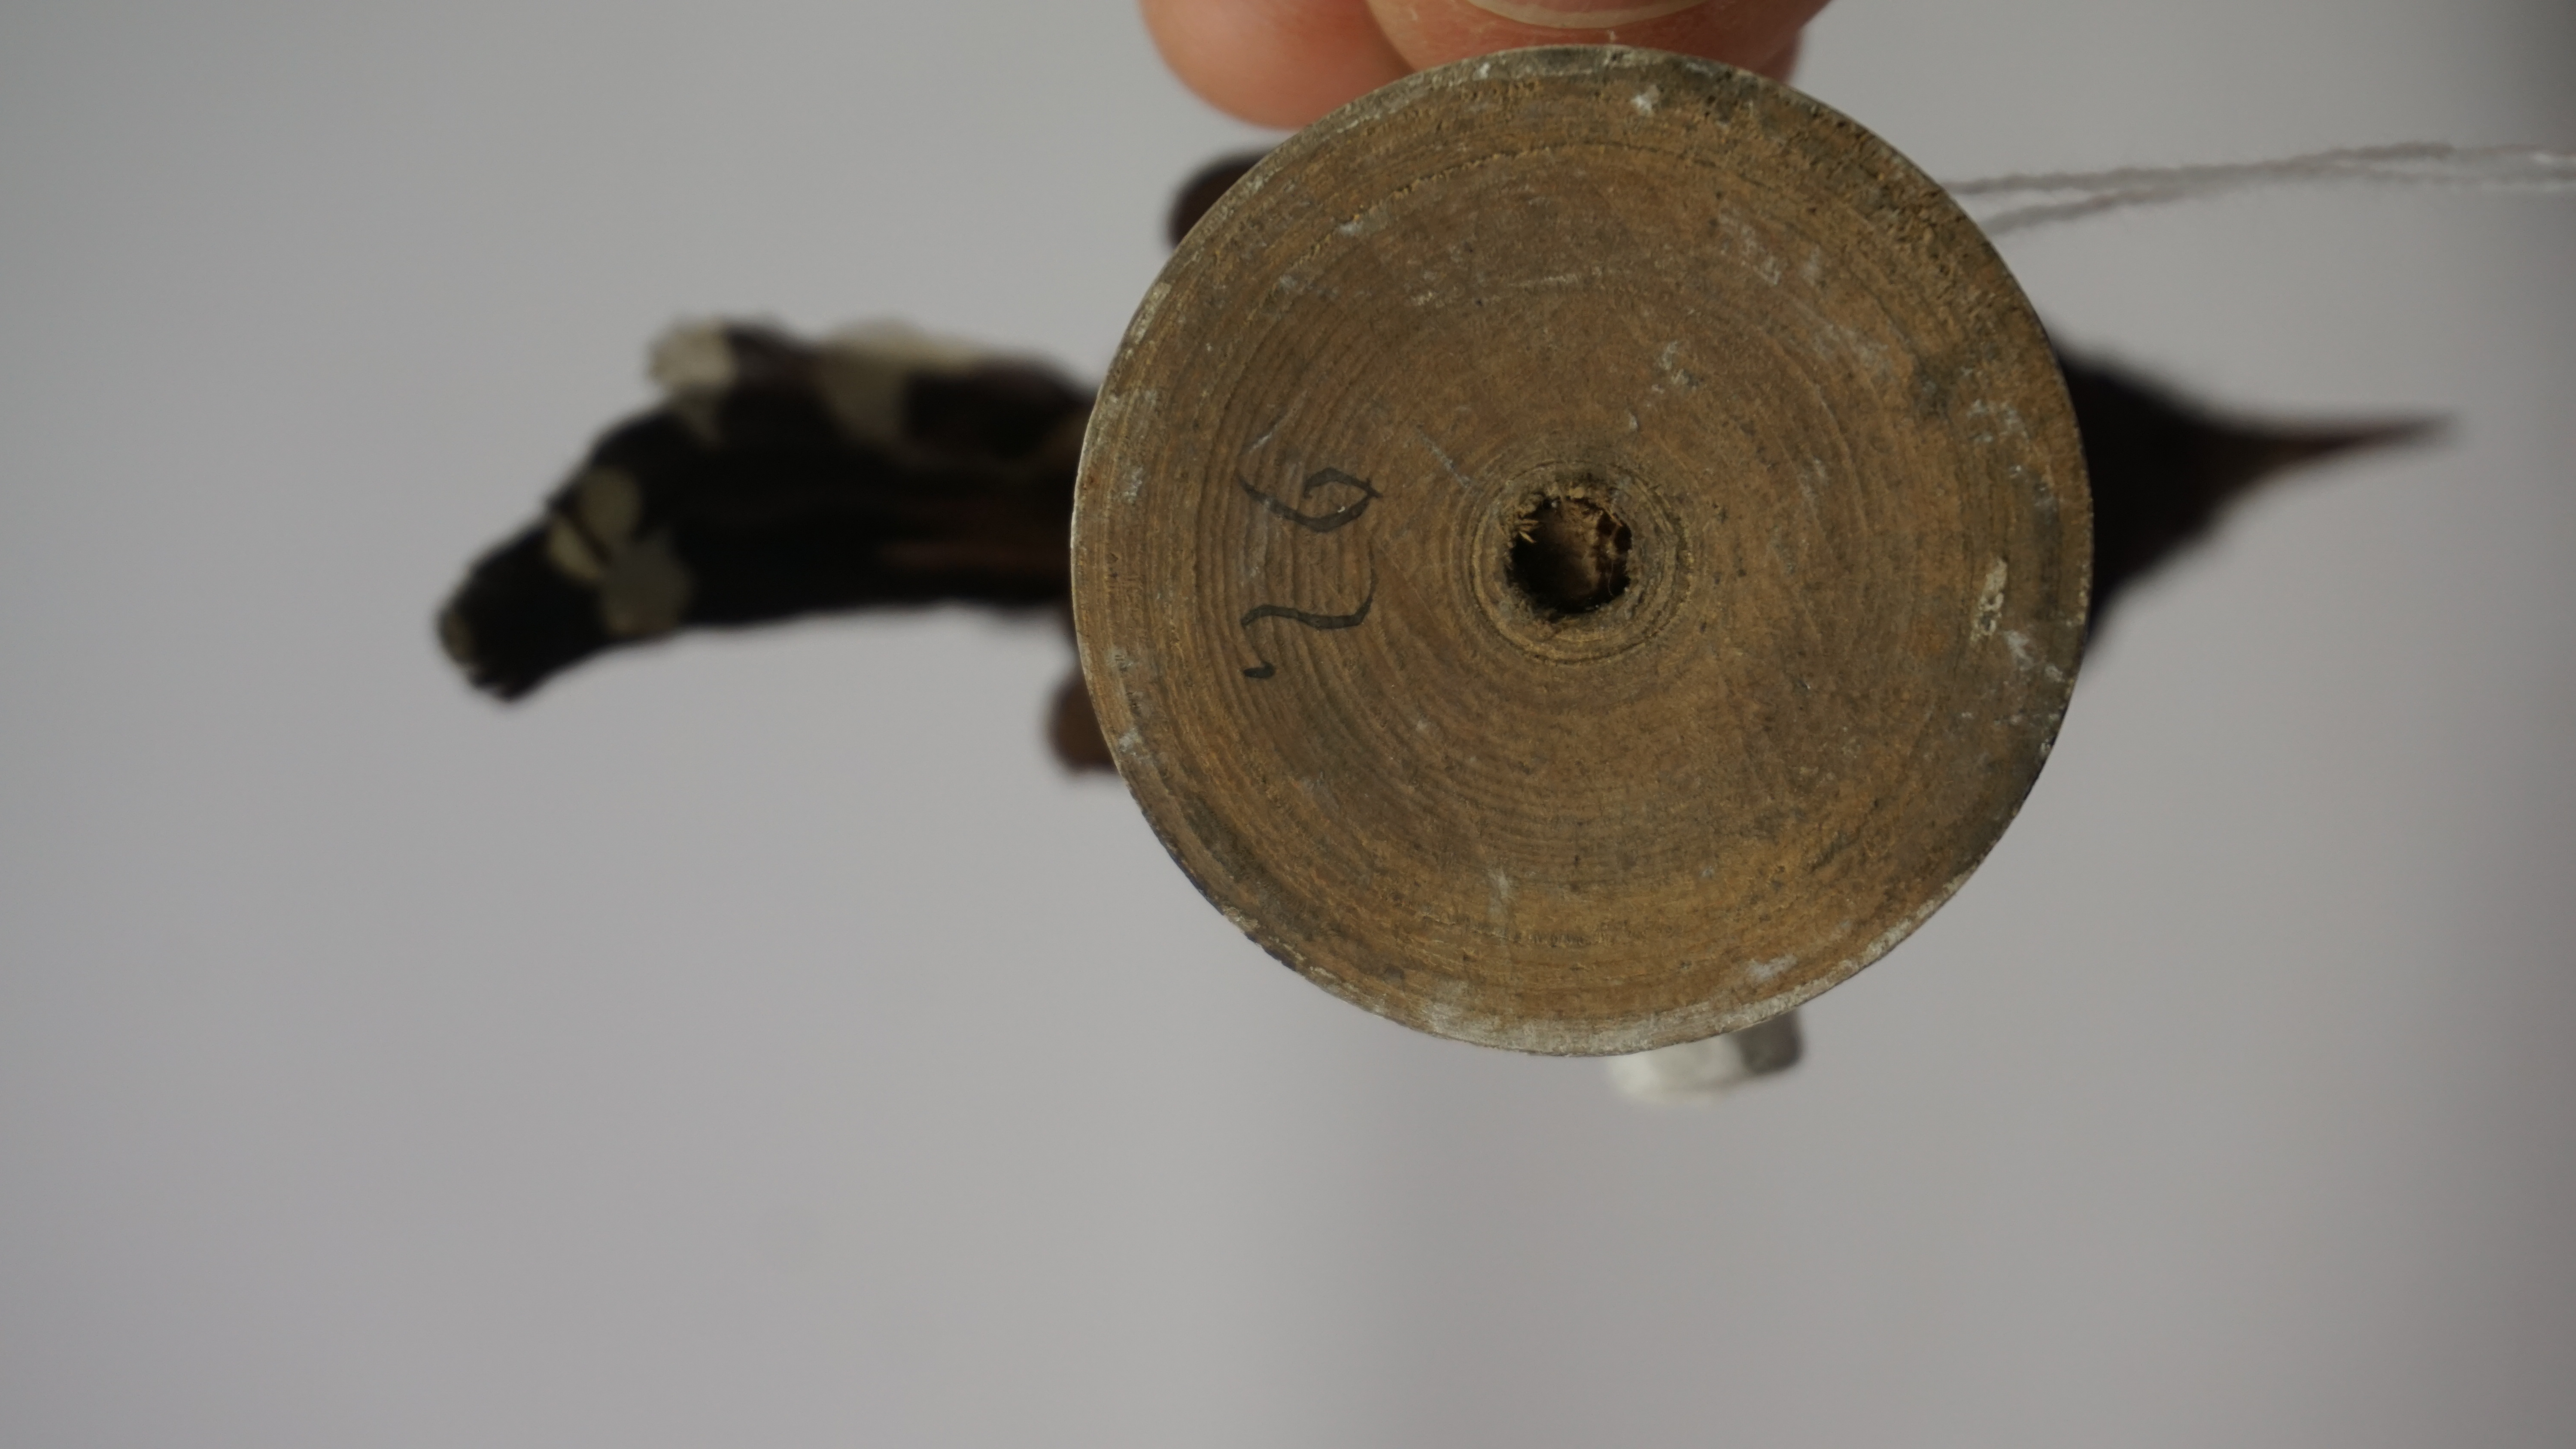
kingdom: Animalia
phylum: Chordata
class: Aves
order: Passeriformes
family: Thamnophilidae
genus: Formicivora
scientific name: Formicivora grisea
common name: Southern white-fringed antwren
